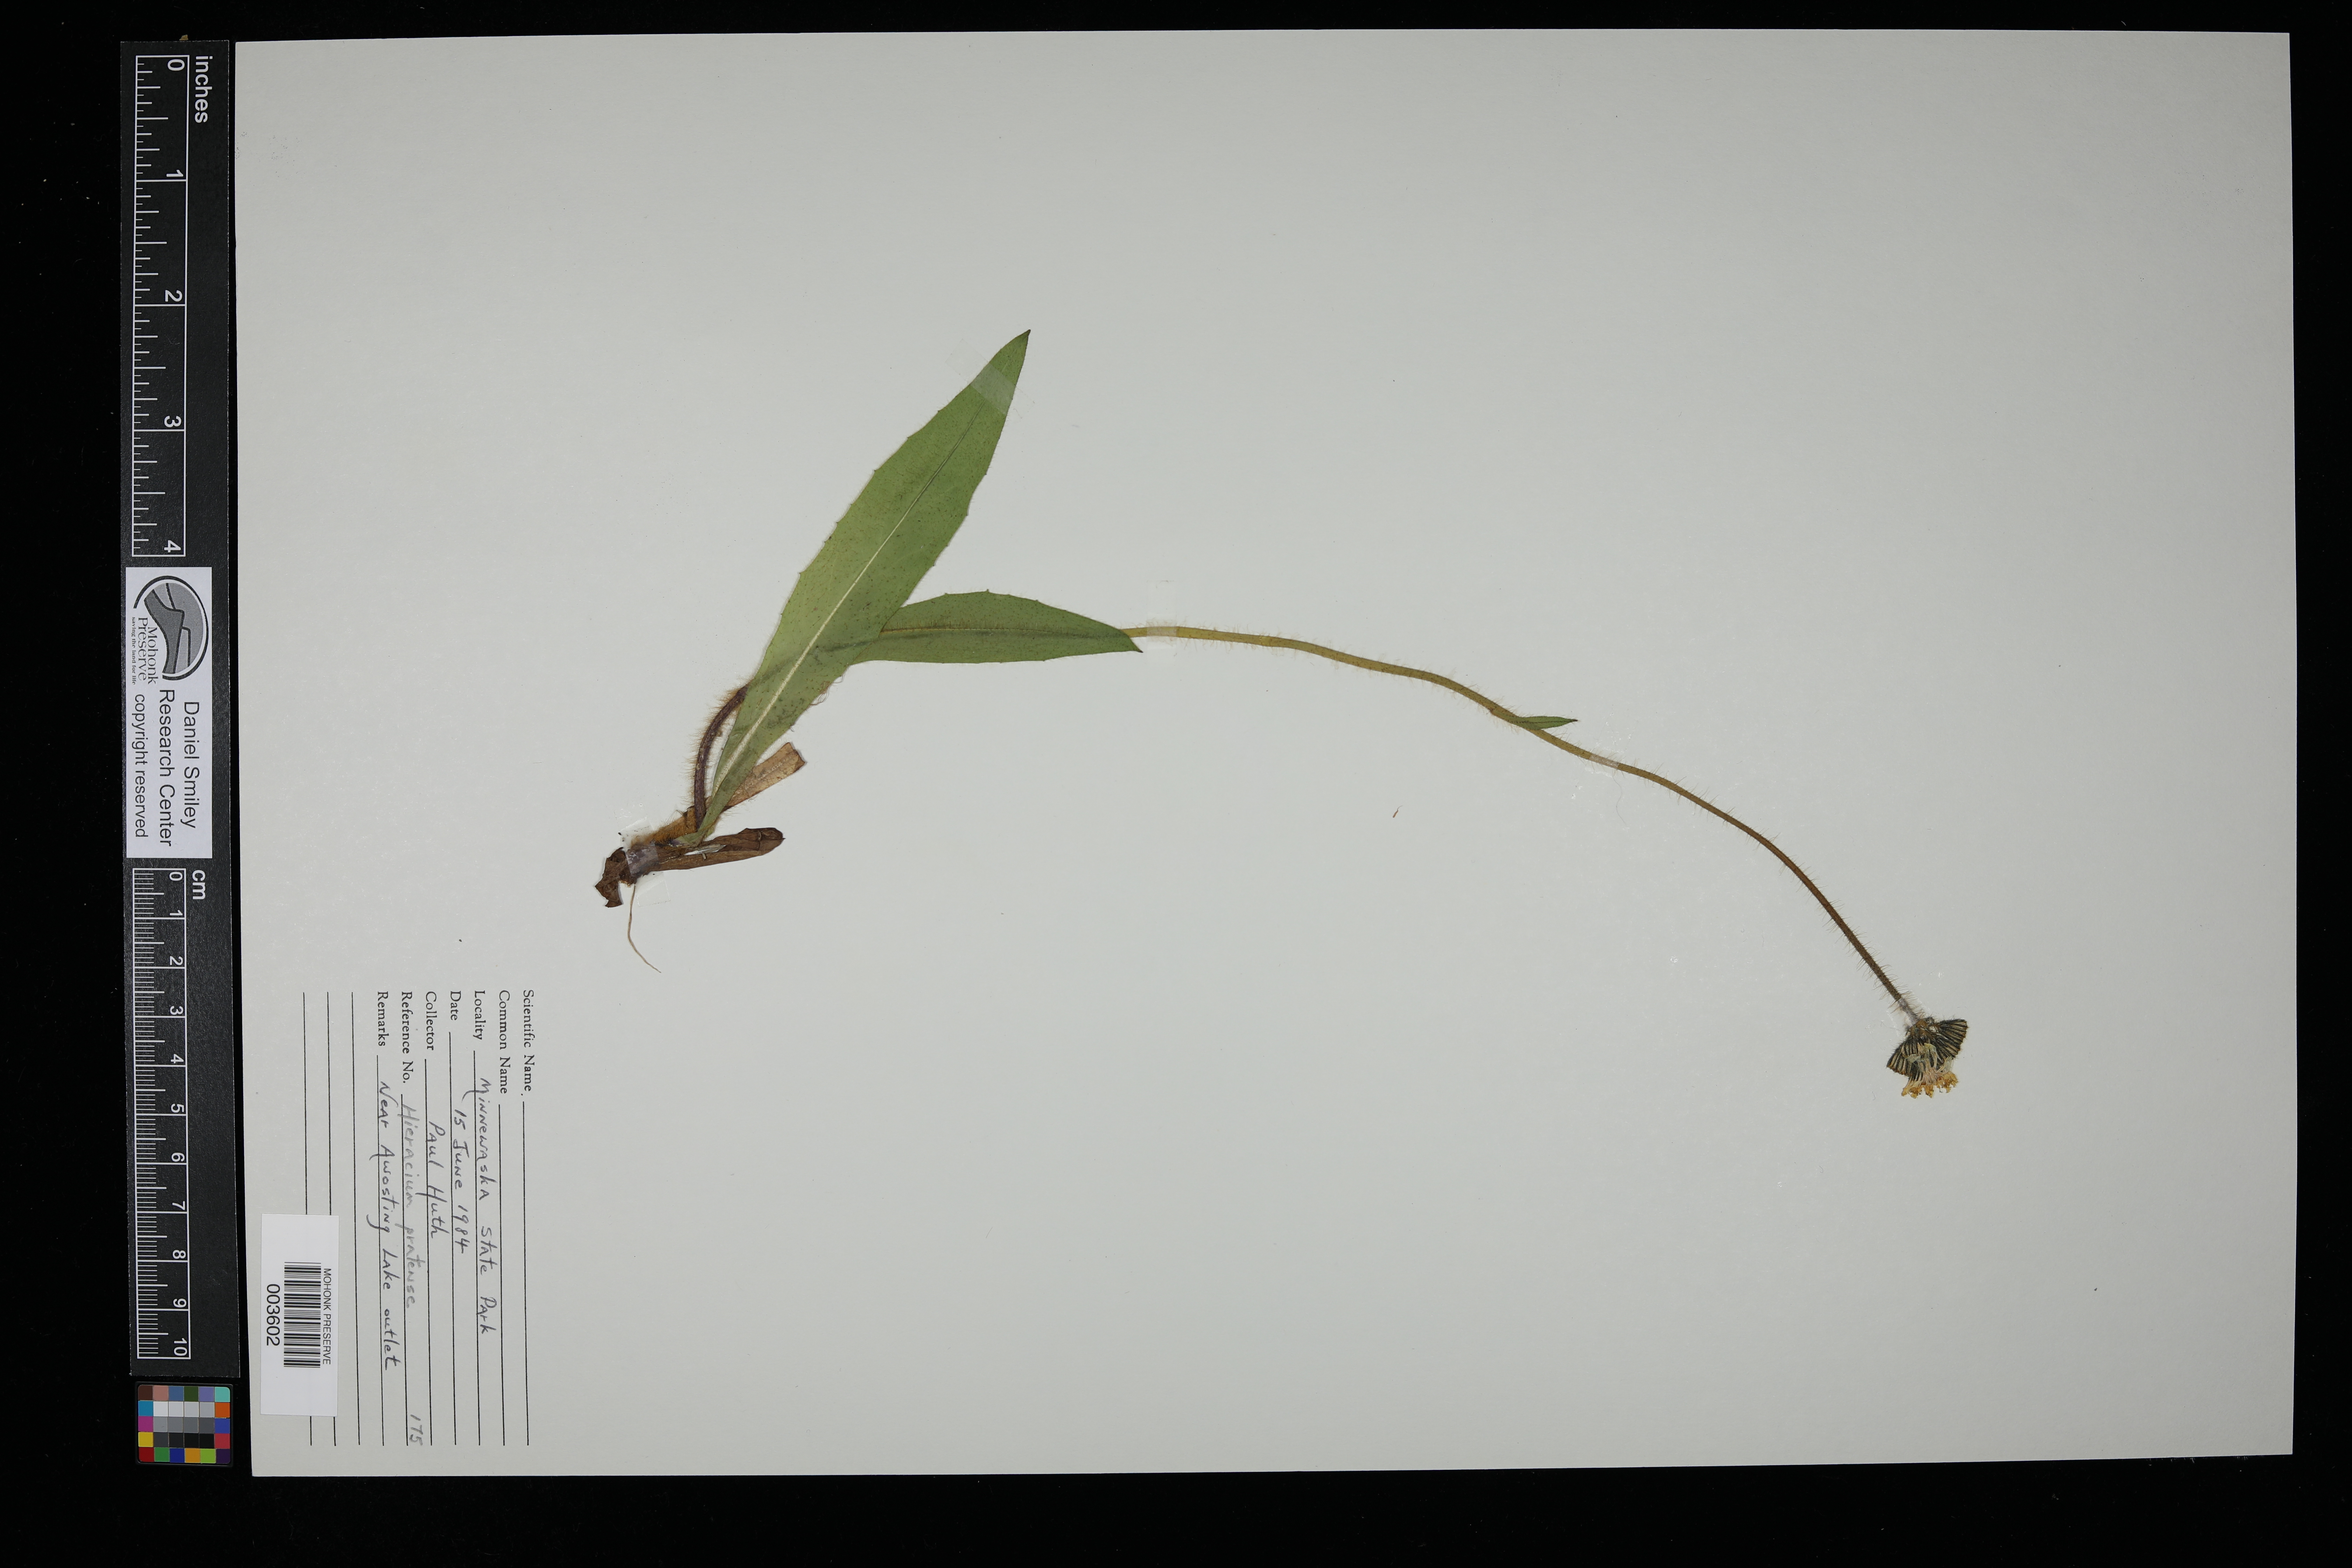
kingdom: Plantae
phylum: Tracheophyta
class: Magnoliopsida
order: Asterales
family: Asteraceae
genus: Pilosella
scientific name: Pilosella caespitosa
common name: Yellow fox-and-cubs
